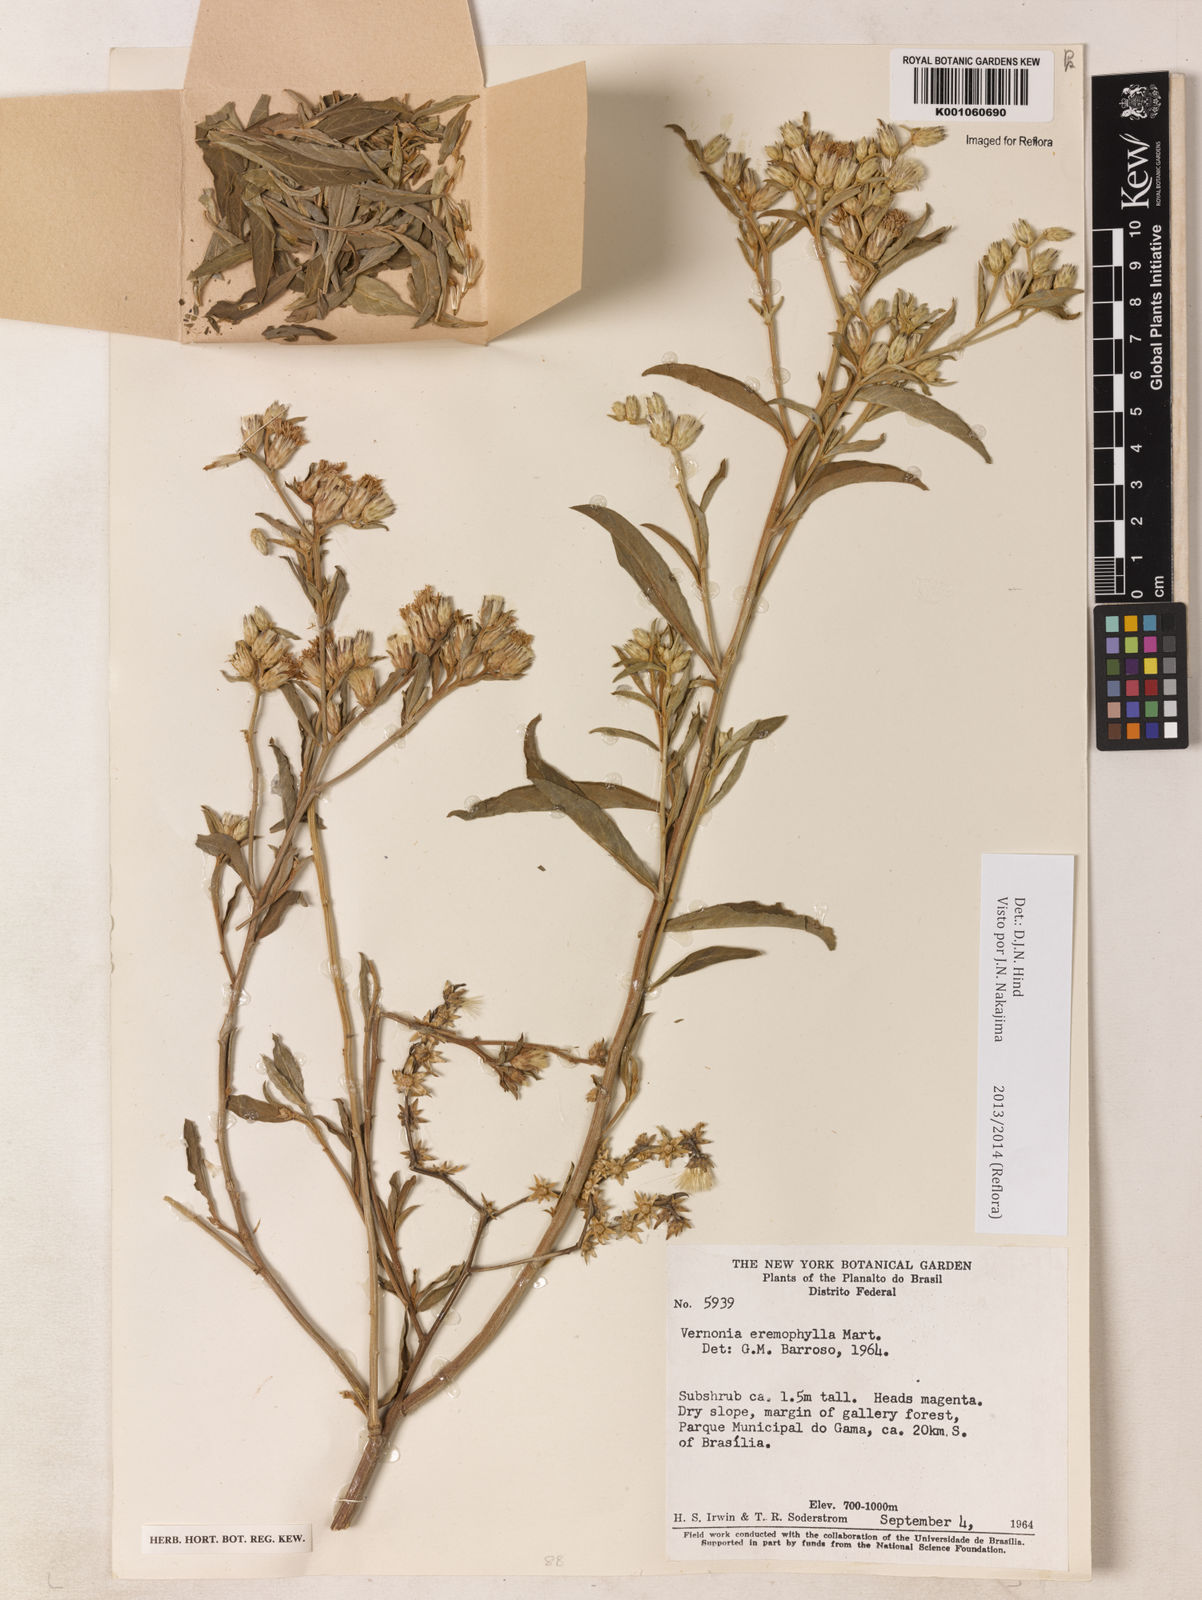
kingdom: Plantae
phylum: Tracheophyta
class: Magnoliopsida
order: Asterales
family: Asteraceae
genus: Lepidaploa
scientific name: Lepidaploa rufogrisea
